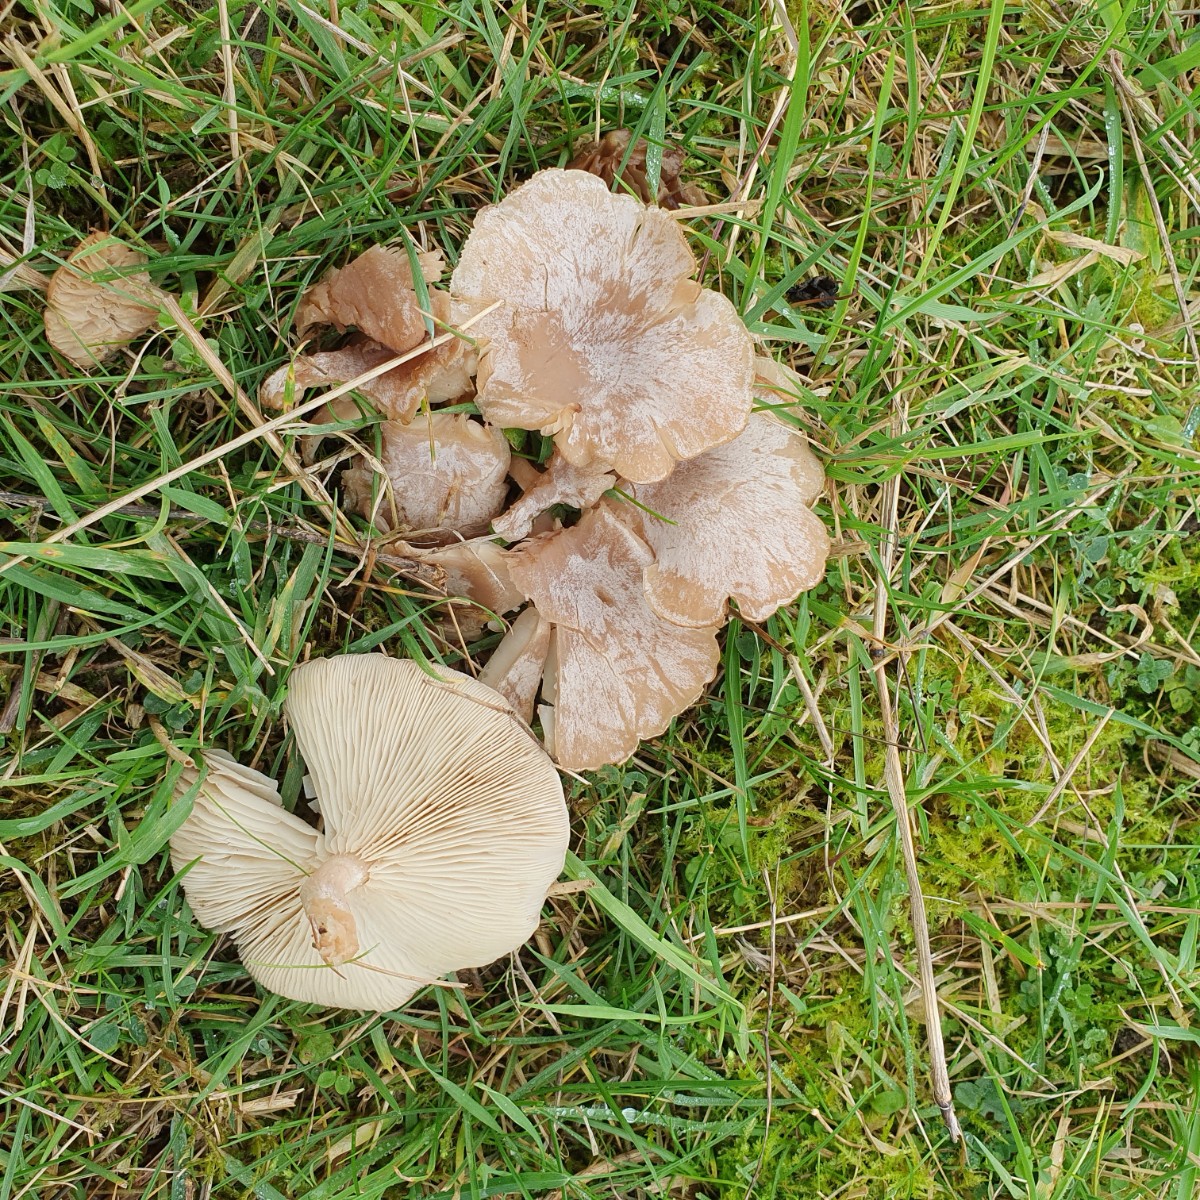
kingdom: Fungi
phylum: Basidiomycota
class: Agaricomycetes
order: Agaricales
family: Tricholomataceae
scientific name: Tricholomataceae
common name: ridderhatfamilien
